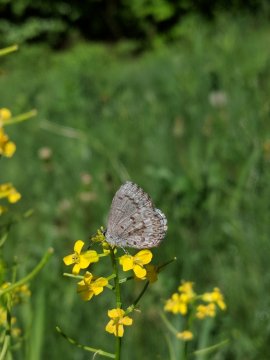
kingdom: Animalia
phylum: Arthropoda
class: Insecta
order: Lepidoptera
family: Lycaenidae
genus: Celastrina
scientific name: Celastrina lucia
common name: Northern Spring Azure
